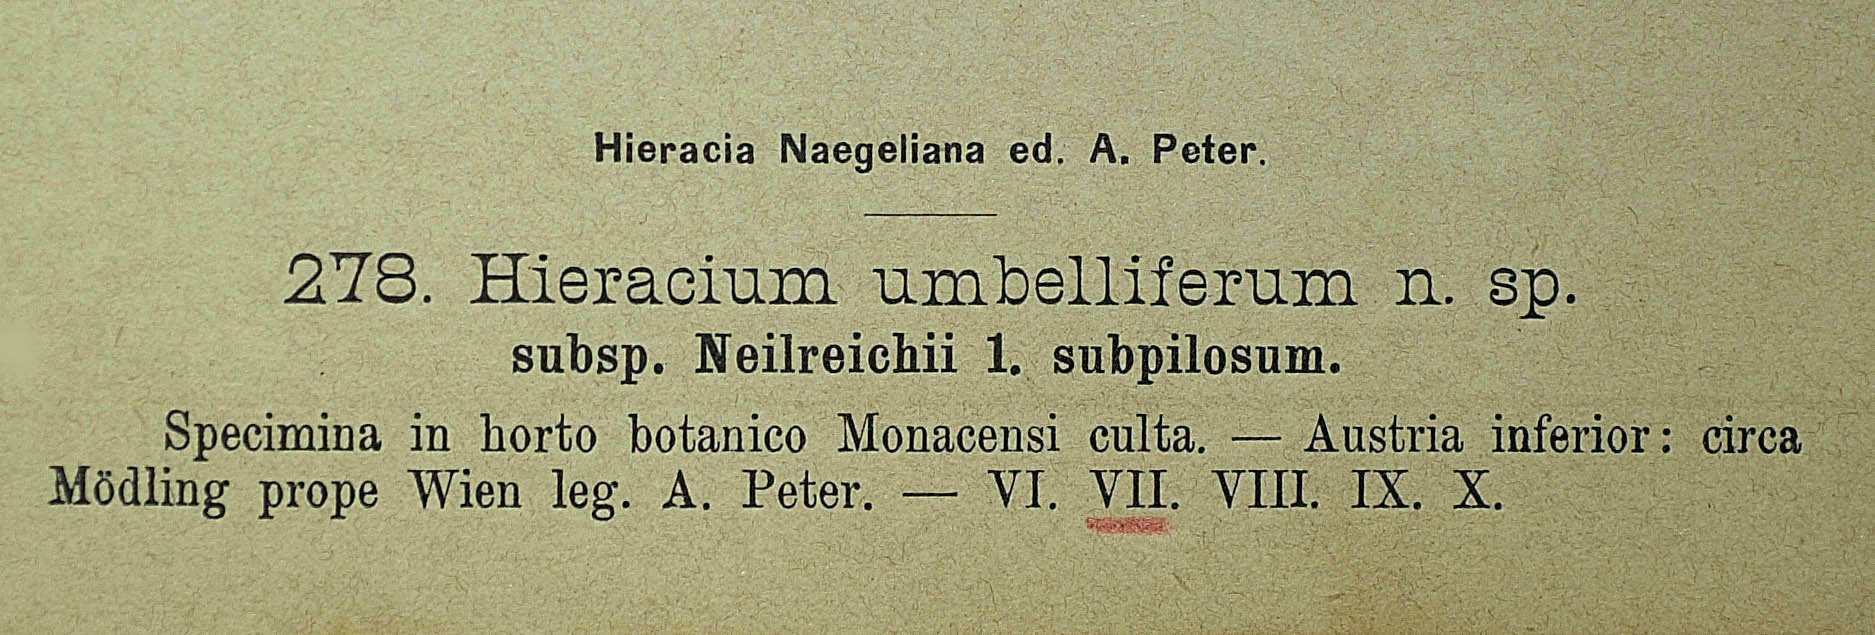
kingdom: Plantae
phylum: Tracheophyta
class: Magnoliopsida
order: Asterales
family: Asteraceae
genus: Pilosella
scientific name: Pilosella densiflora
